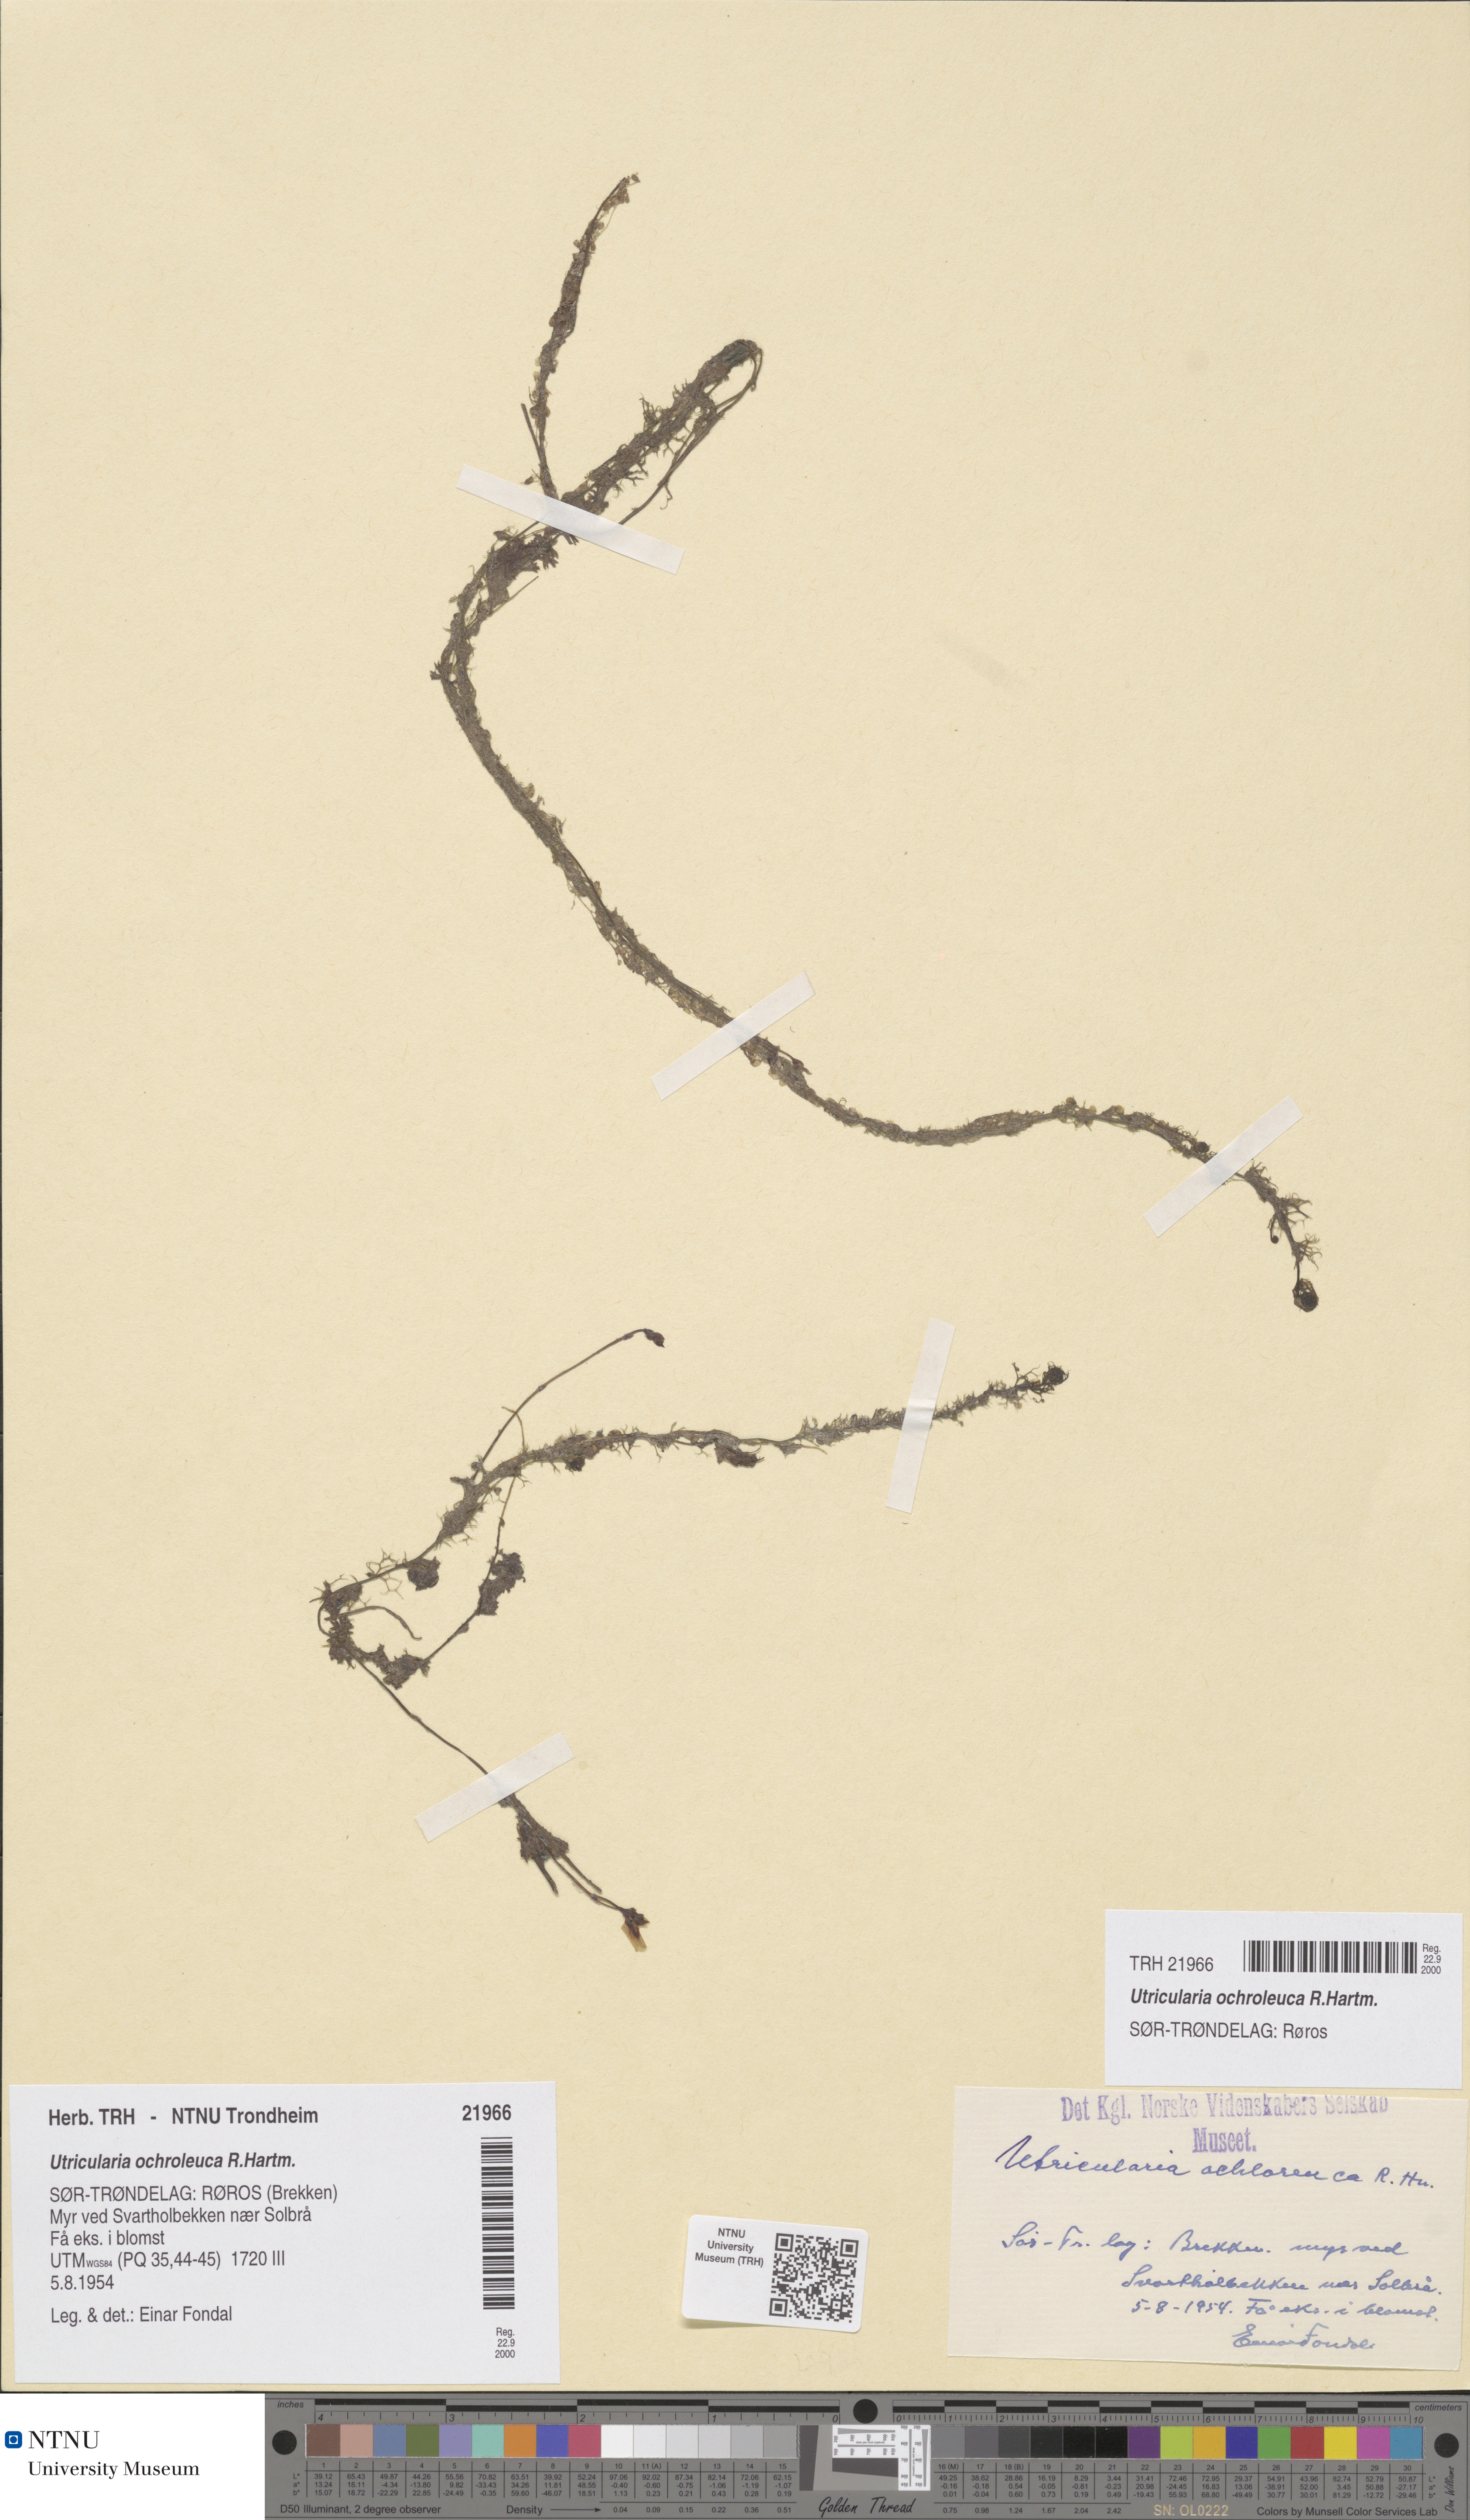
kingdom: Plantae
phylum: Tracheophyta
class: Magnoliopsida
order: Lamiales
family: Lentibulariaceae
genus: Utricularia
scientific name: Utricularia ochroleuca
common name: Pale bladderwort
